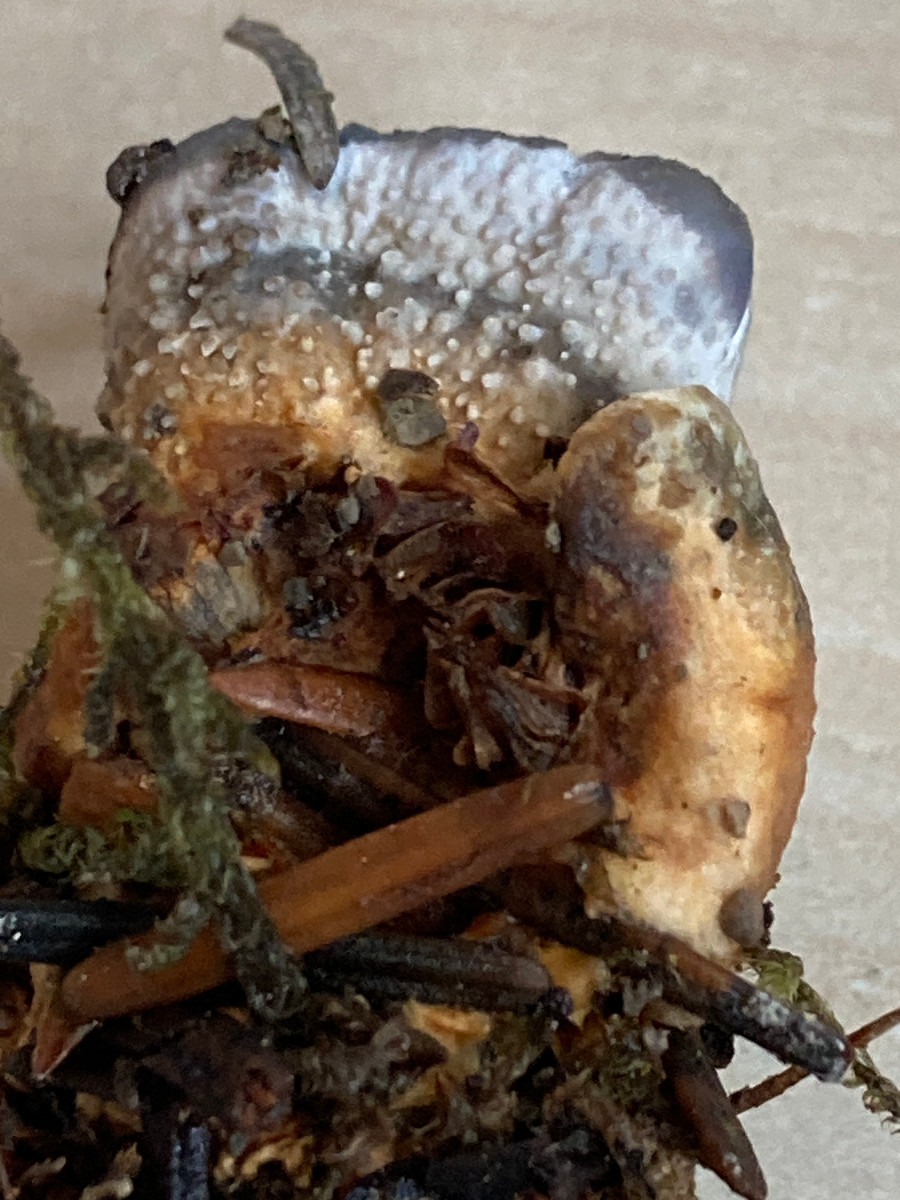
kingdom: Fungi
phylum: Basidiomycota
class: Agaricomycetes
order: Thelephorales
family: Bankeraceae
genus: Hydnellum
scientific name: Hydnellum
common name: korkpigsvamp
